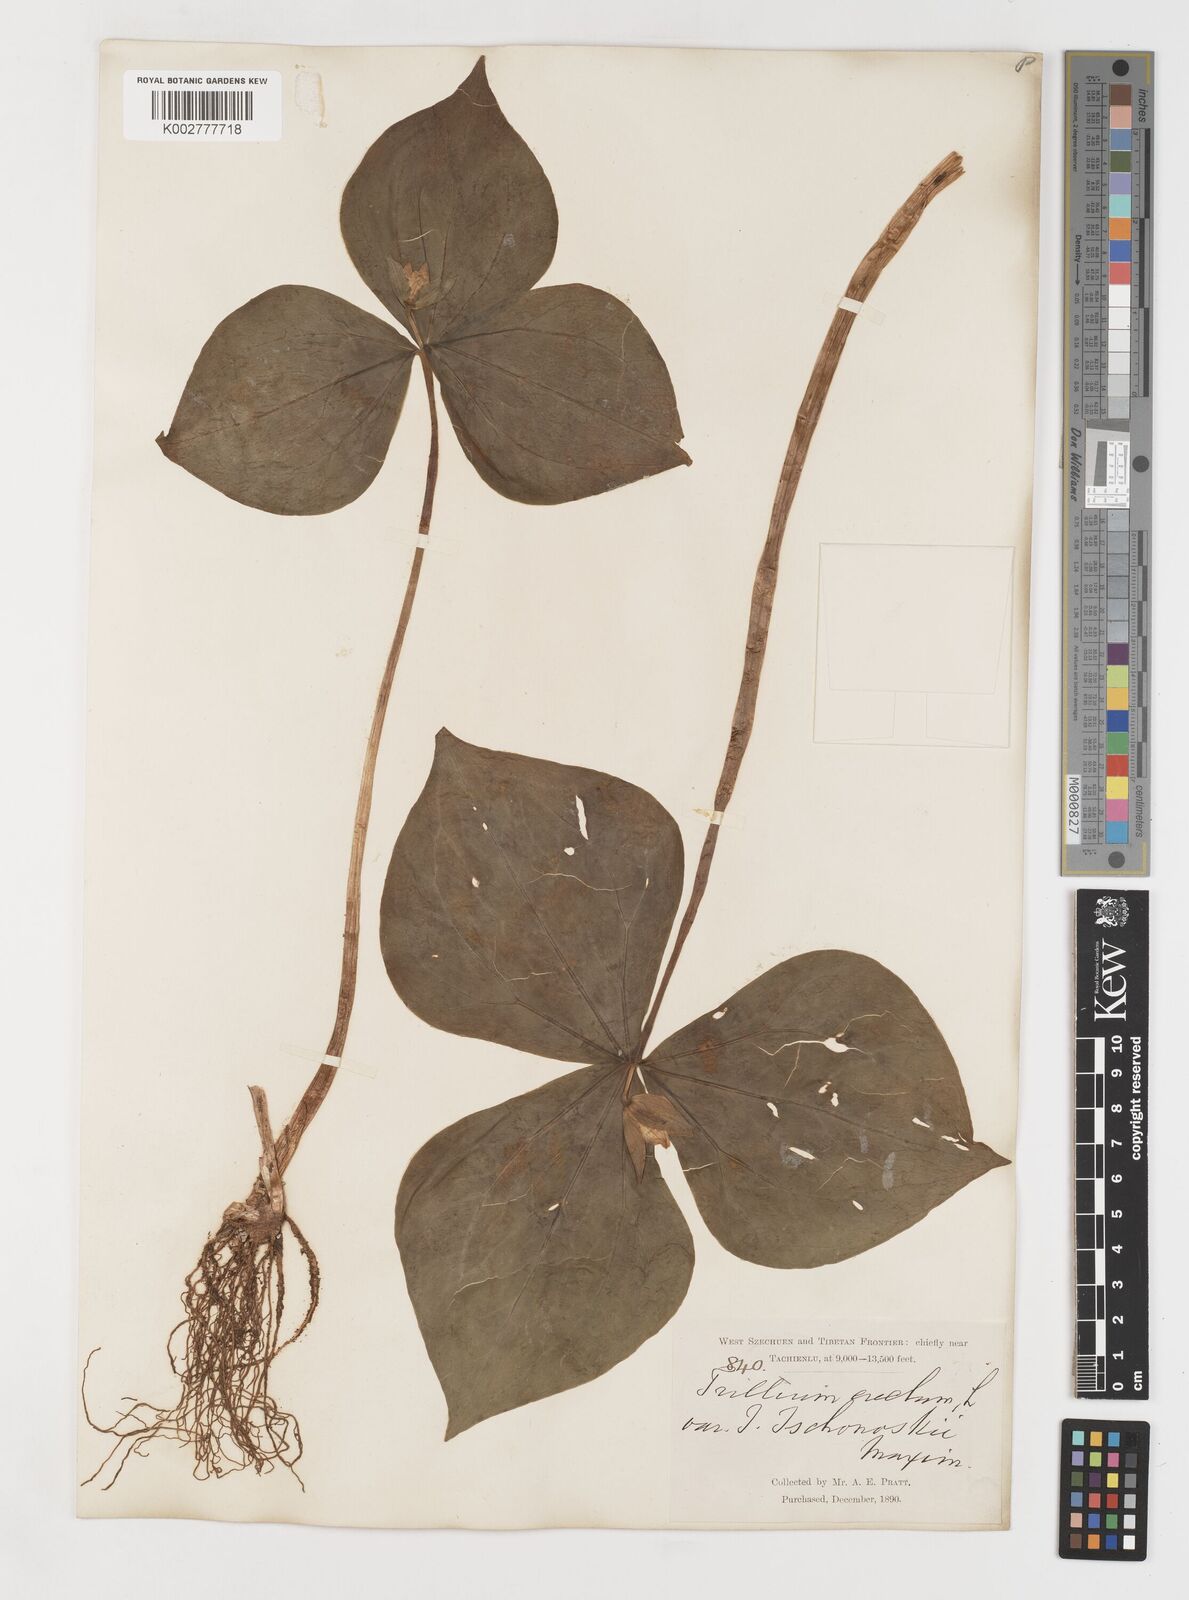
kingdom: Plantae
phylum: Tracheophyta
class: Liliopsida
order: Liliales
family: Melanthiaceae
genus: Trillium
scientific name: Trillium tschonoskii
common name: A pearl on head
